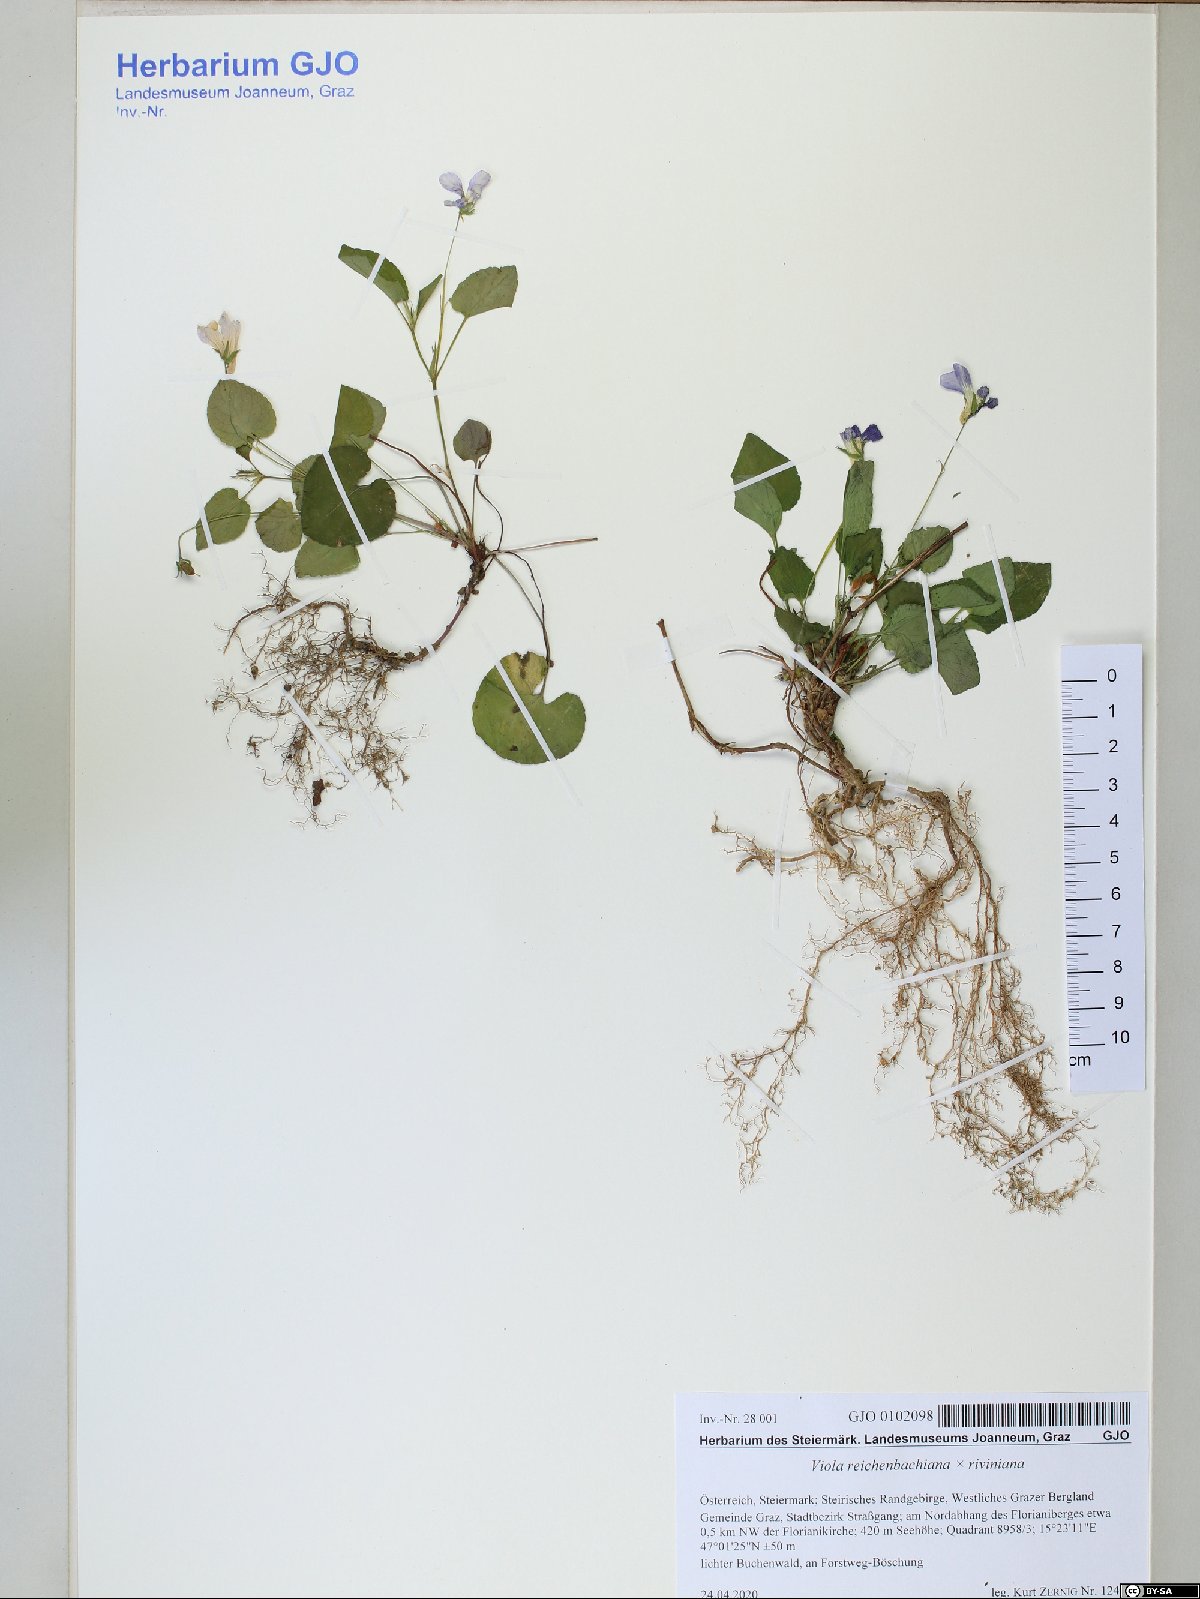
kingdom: Plantae
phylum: Tracheophyta
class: Magnoliopsida
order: Malpighiales
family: Violaceae
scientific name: Violaceae
